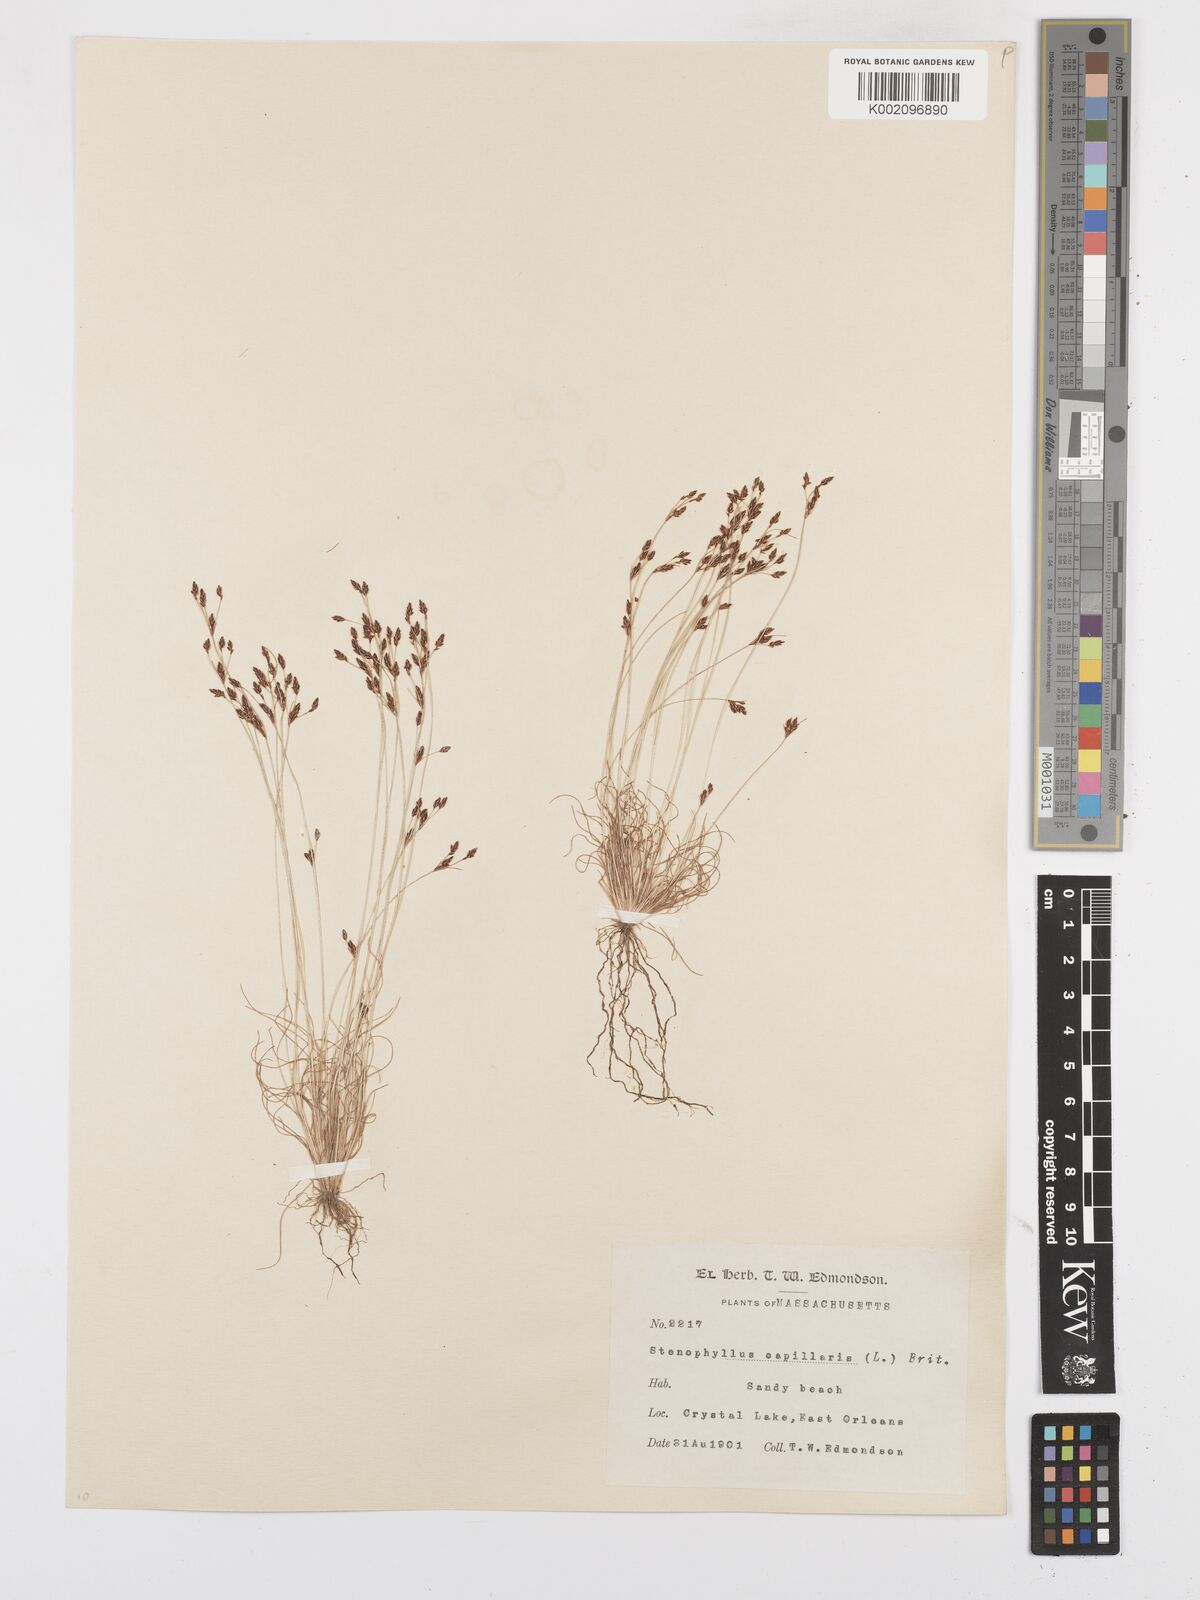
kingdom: Plantae
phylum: Tracheophyta
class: Liliopsida
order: Poales
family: Cyperaceae
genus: Bulbostylis
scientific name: Bulbostylis capillaris
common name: Densetuft hairsedge
